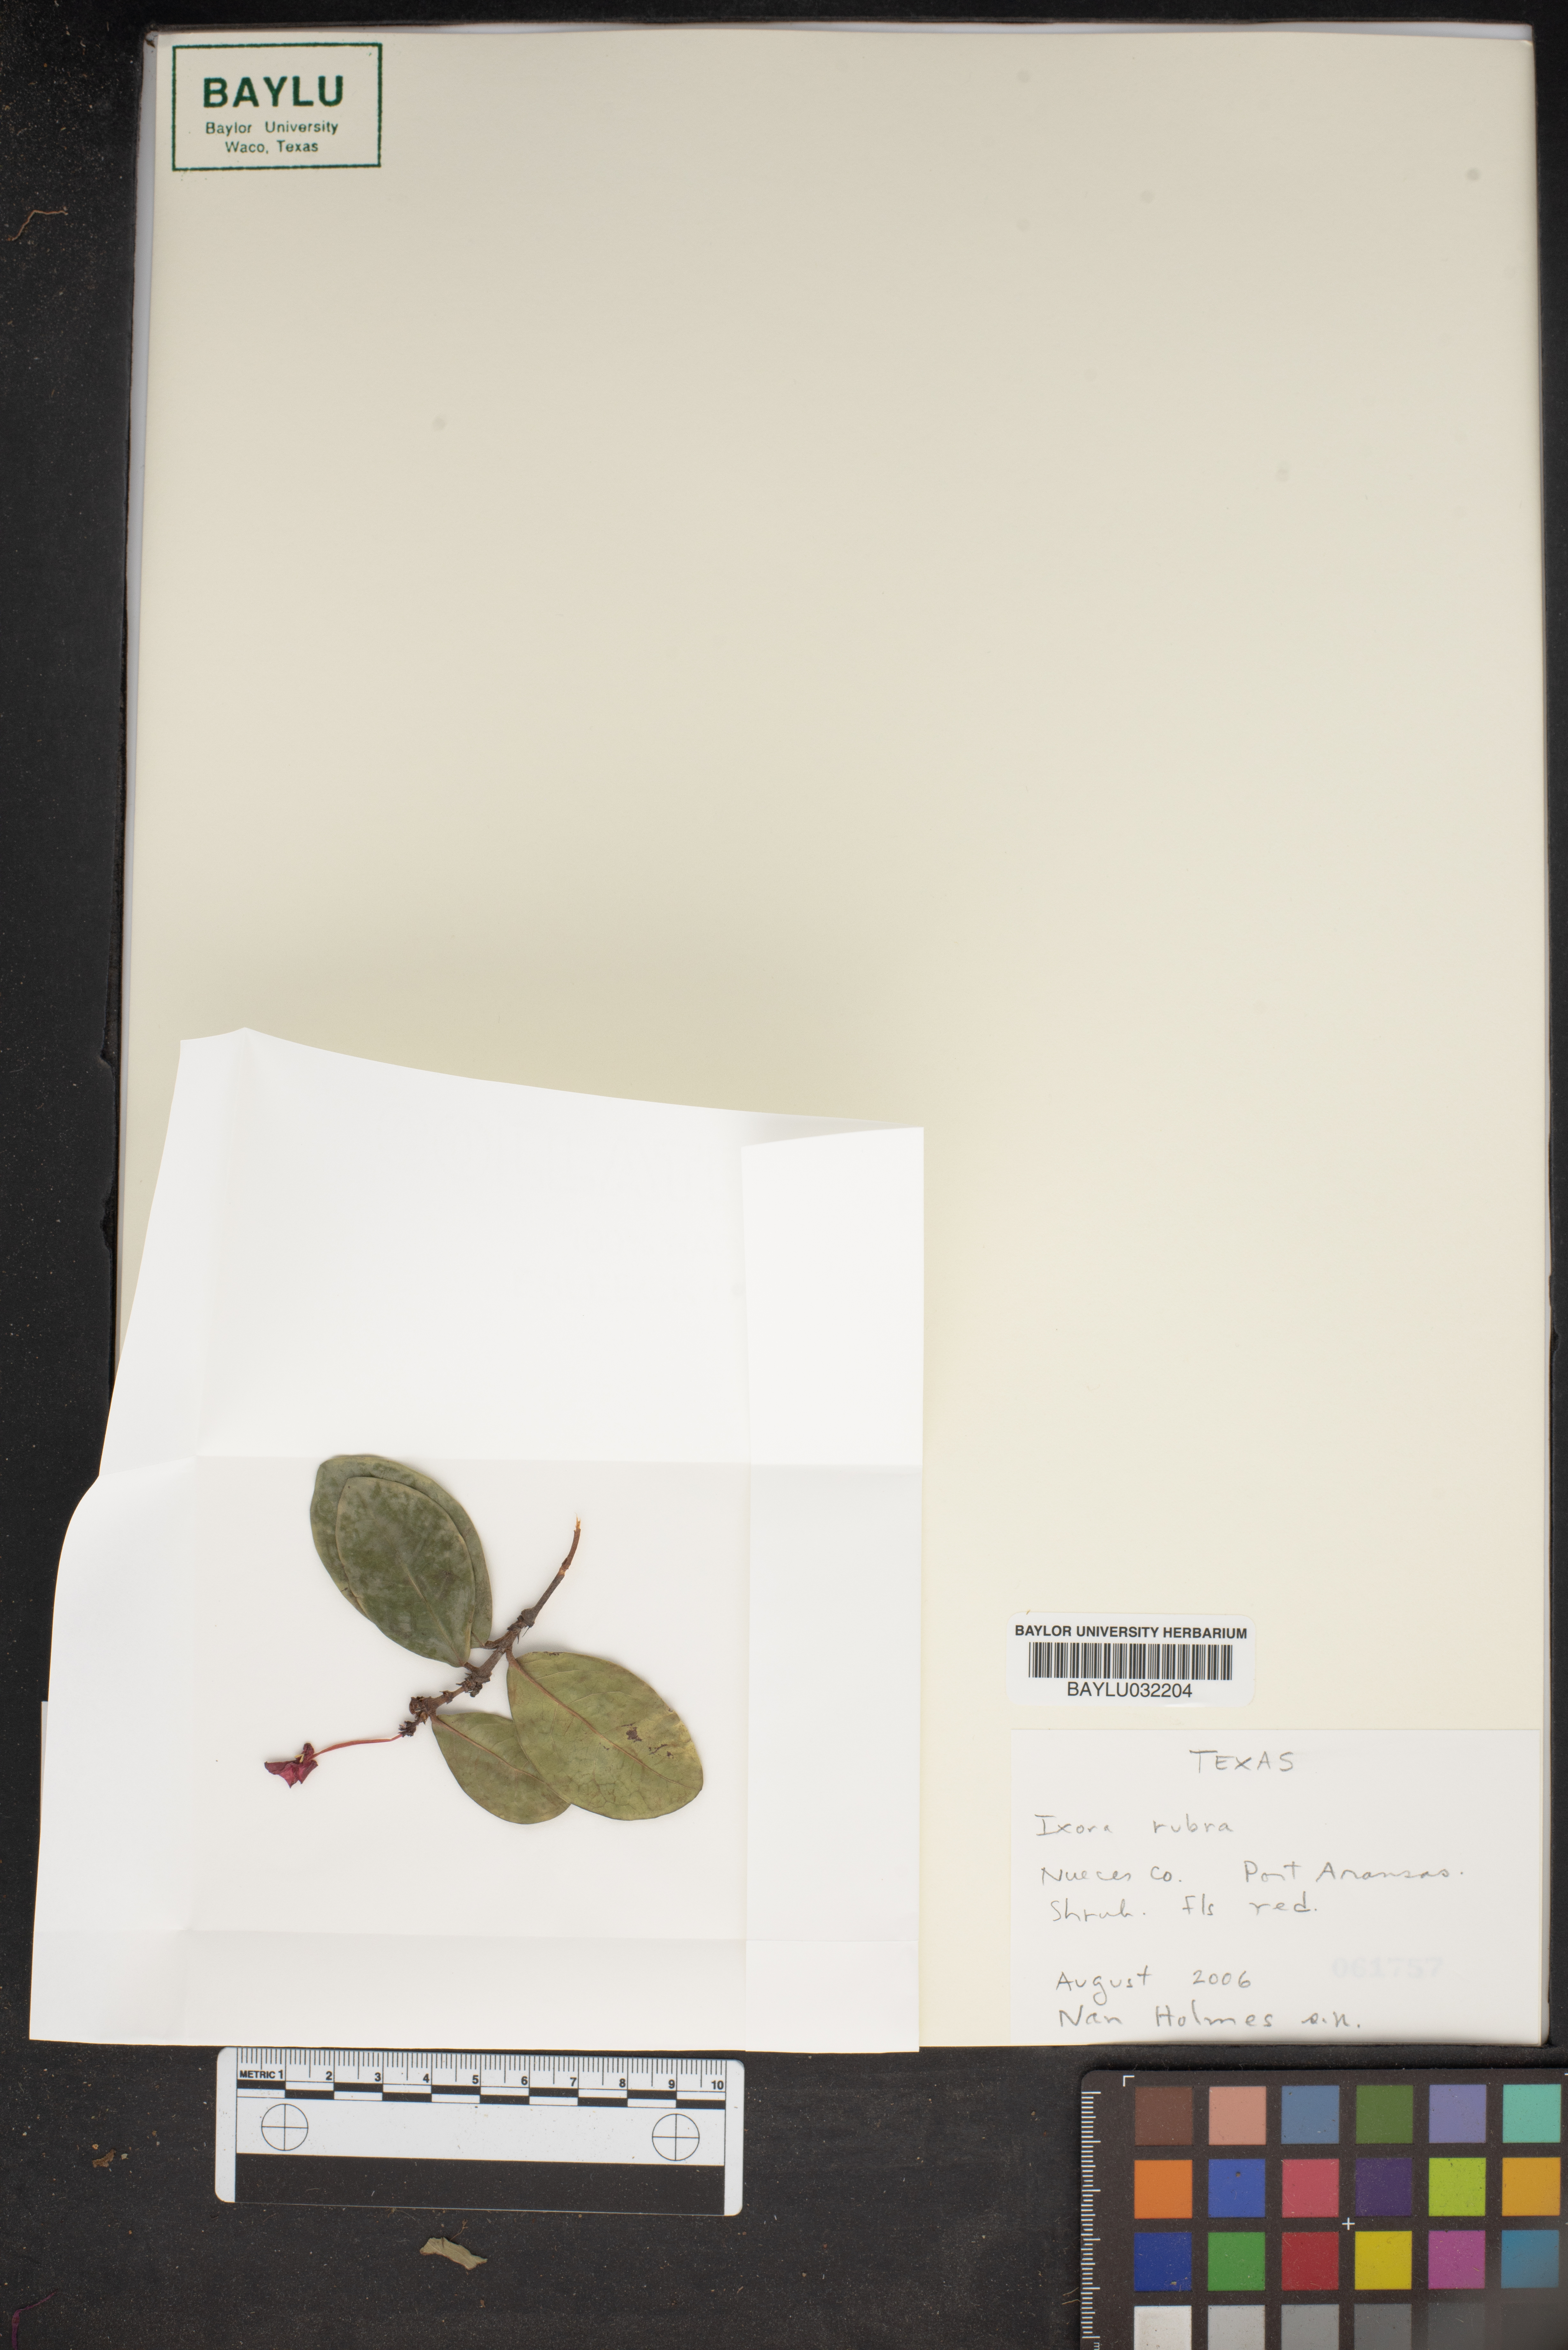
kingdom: Plantae
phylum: Tracheophyta
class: Magnoliopsida
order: Gentianales
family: Rubiaceae
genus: Ixora
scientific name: Ixora
